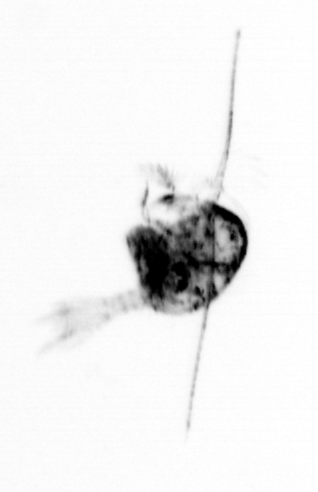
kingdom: Animalia
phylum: Arthropoda
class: Copepoda
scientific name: Copepoda
